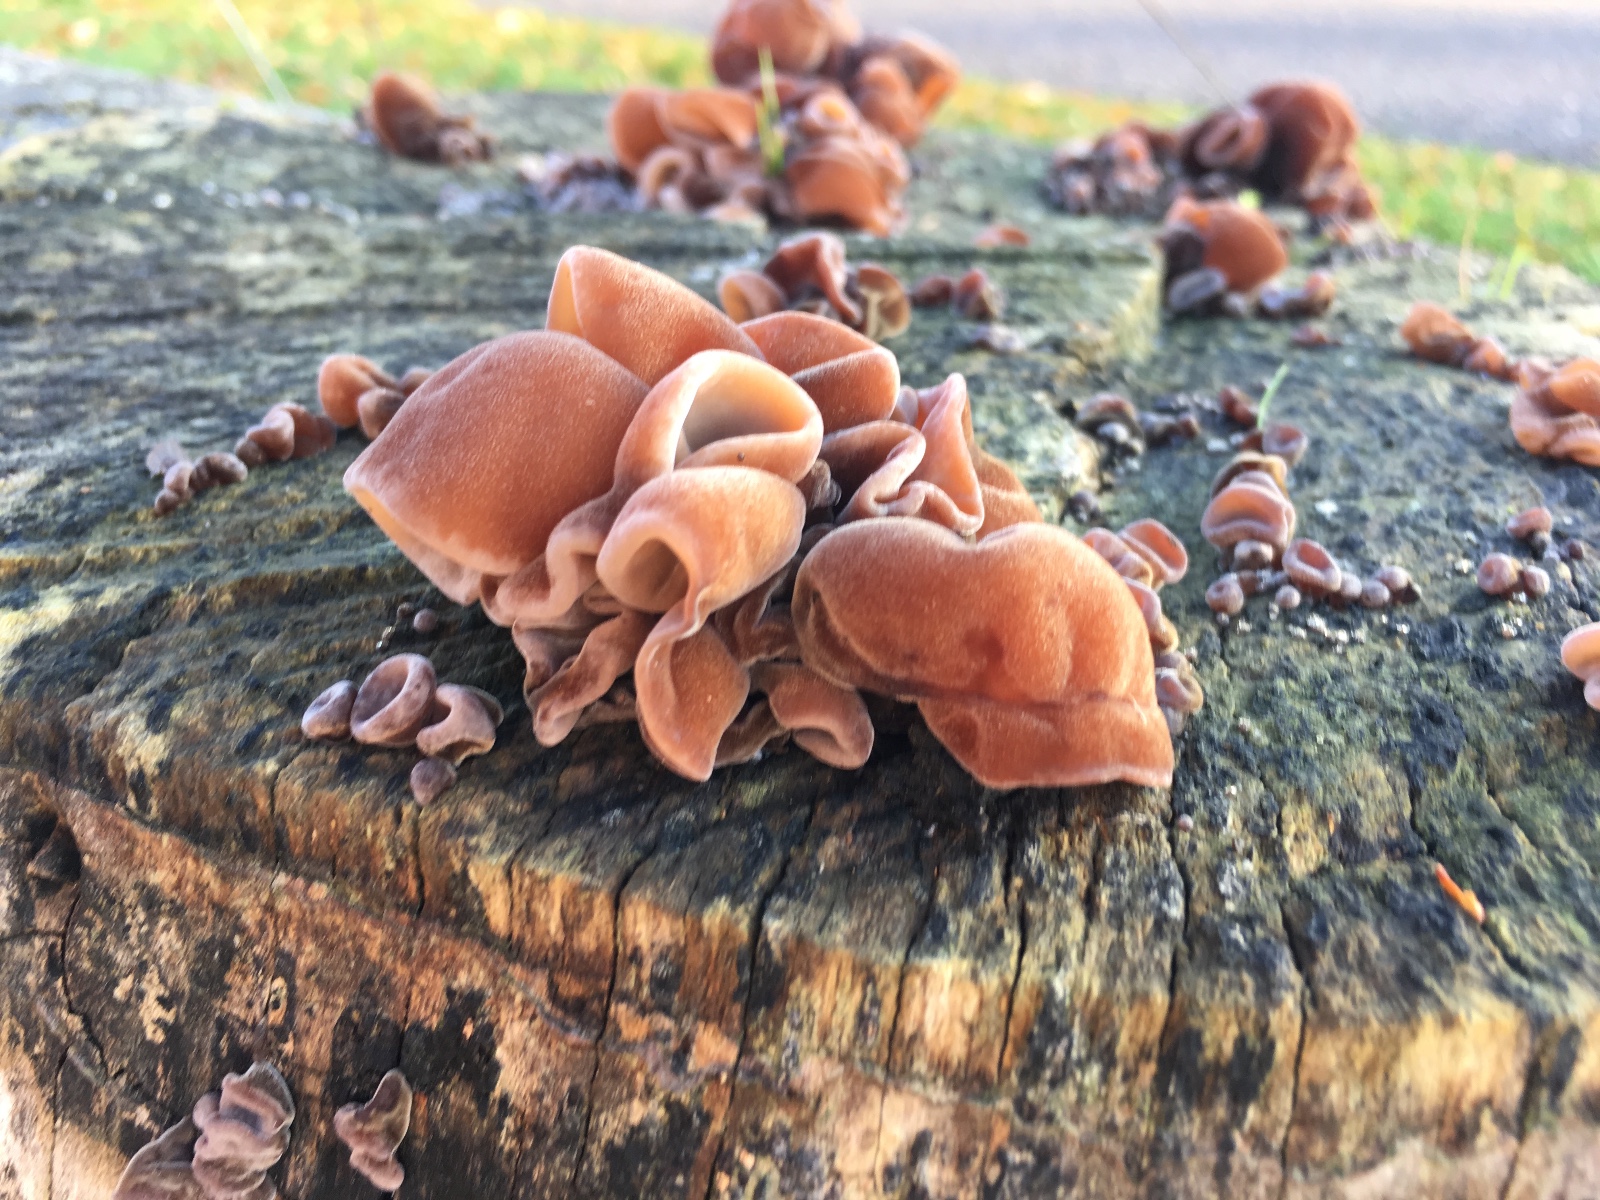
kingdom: Fungi
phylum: Basidiomycota
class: Agaricomycetes
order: Auriculariales
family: Auriculariaceae
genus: Auricularia
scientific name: Auricularia auricula-judae
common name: almindelig judasøre
